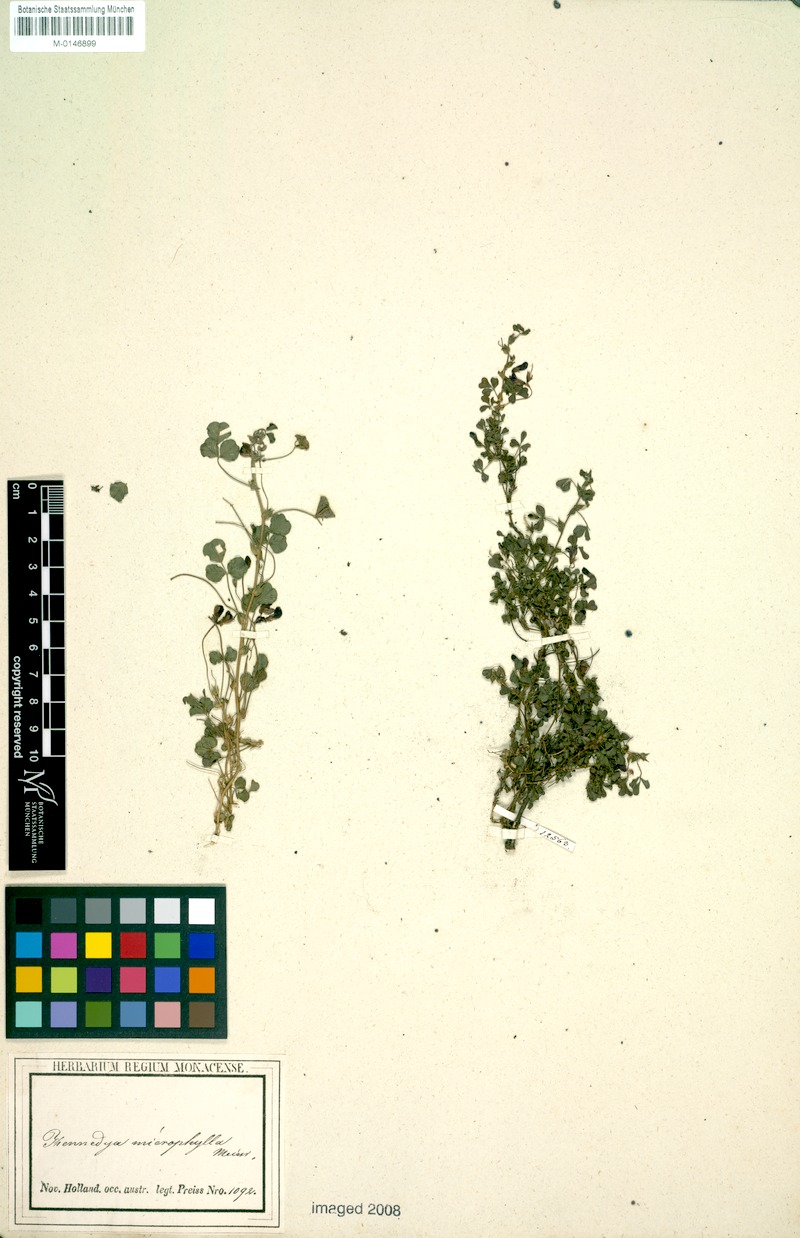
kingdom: Plantae
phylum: Tracheophyta
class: Magnoliopsida
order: Fabales
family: Fabaceae
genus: Kennedia
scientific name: Kennedia microphylla
